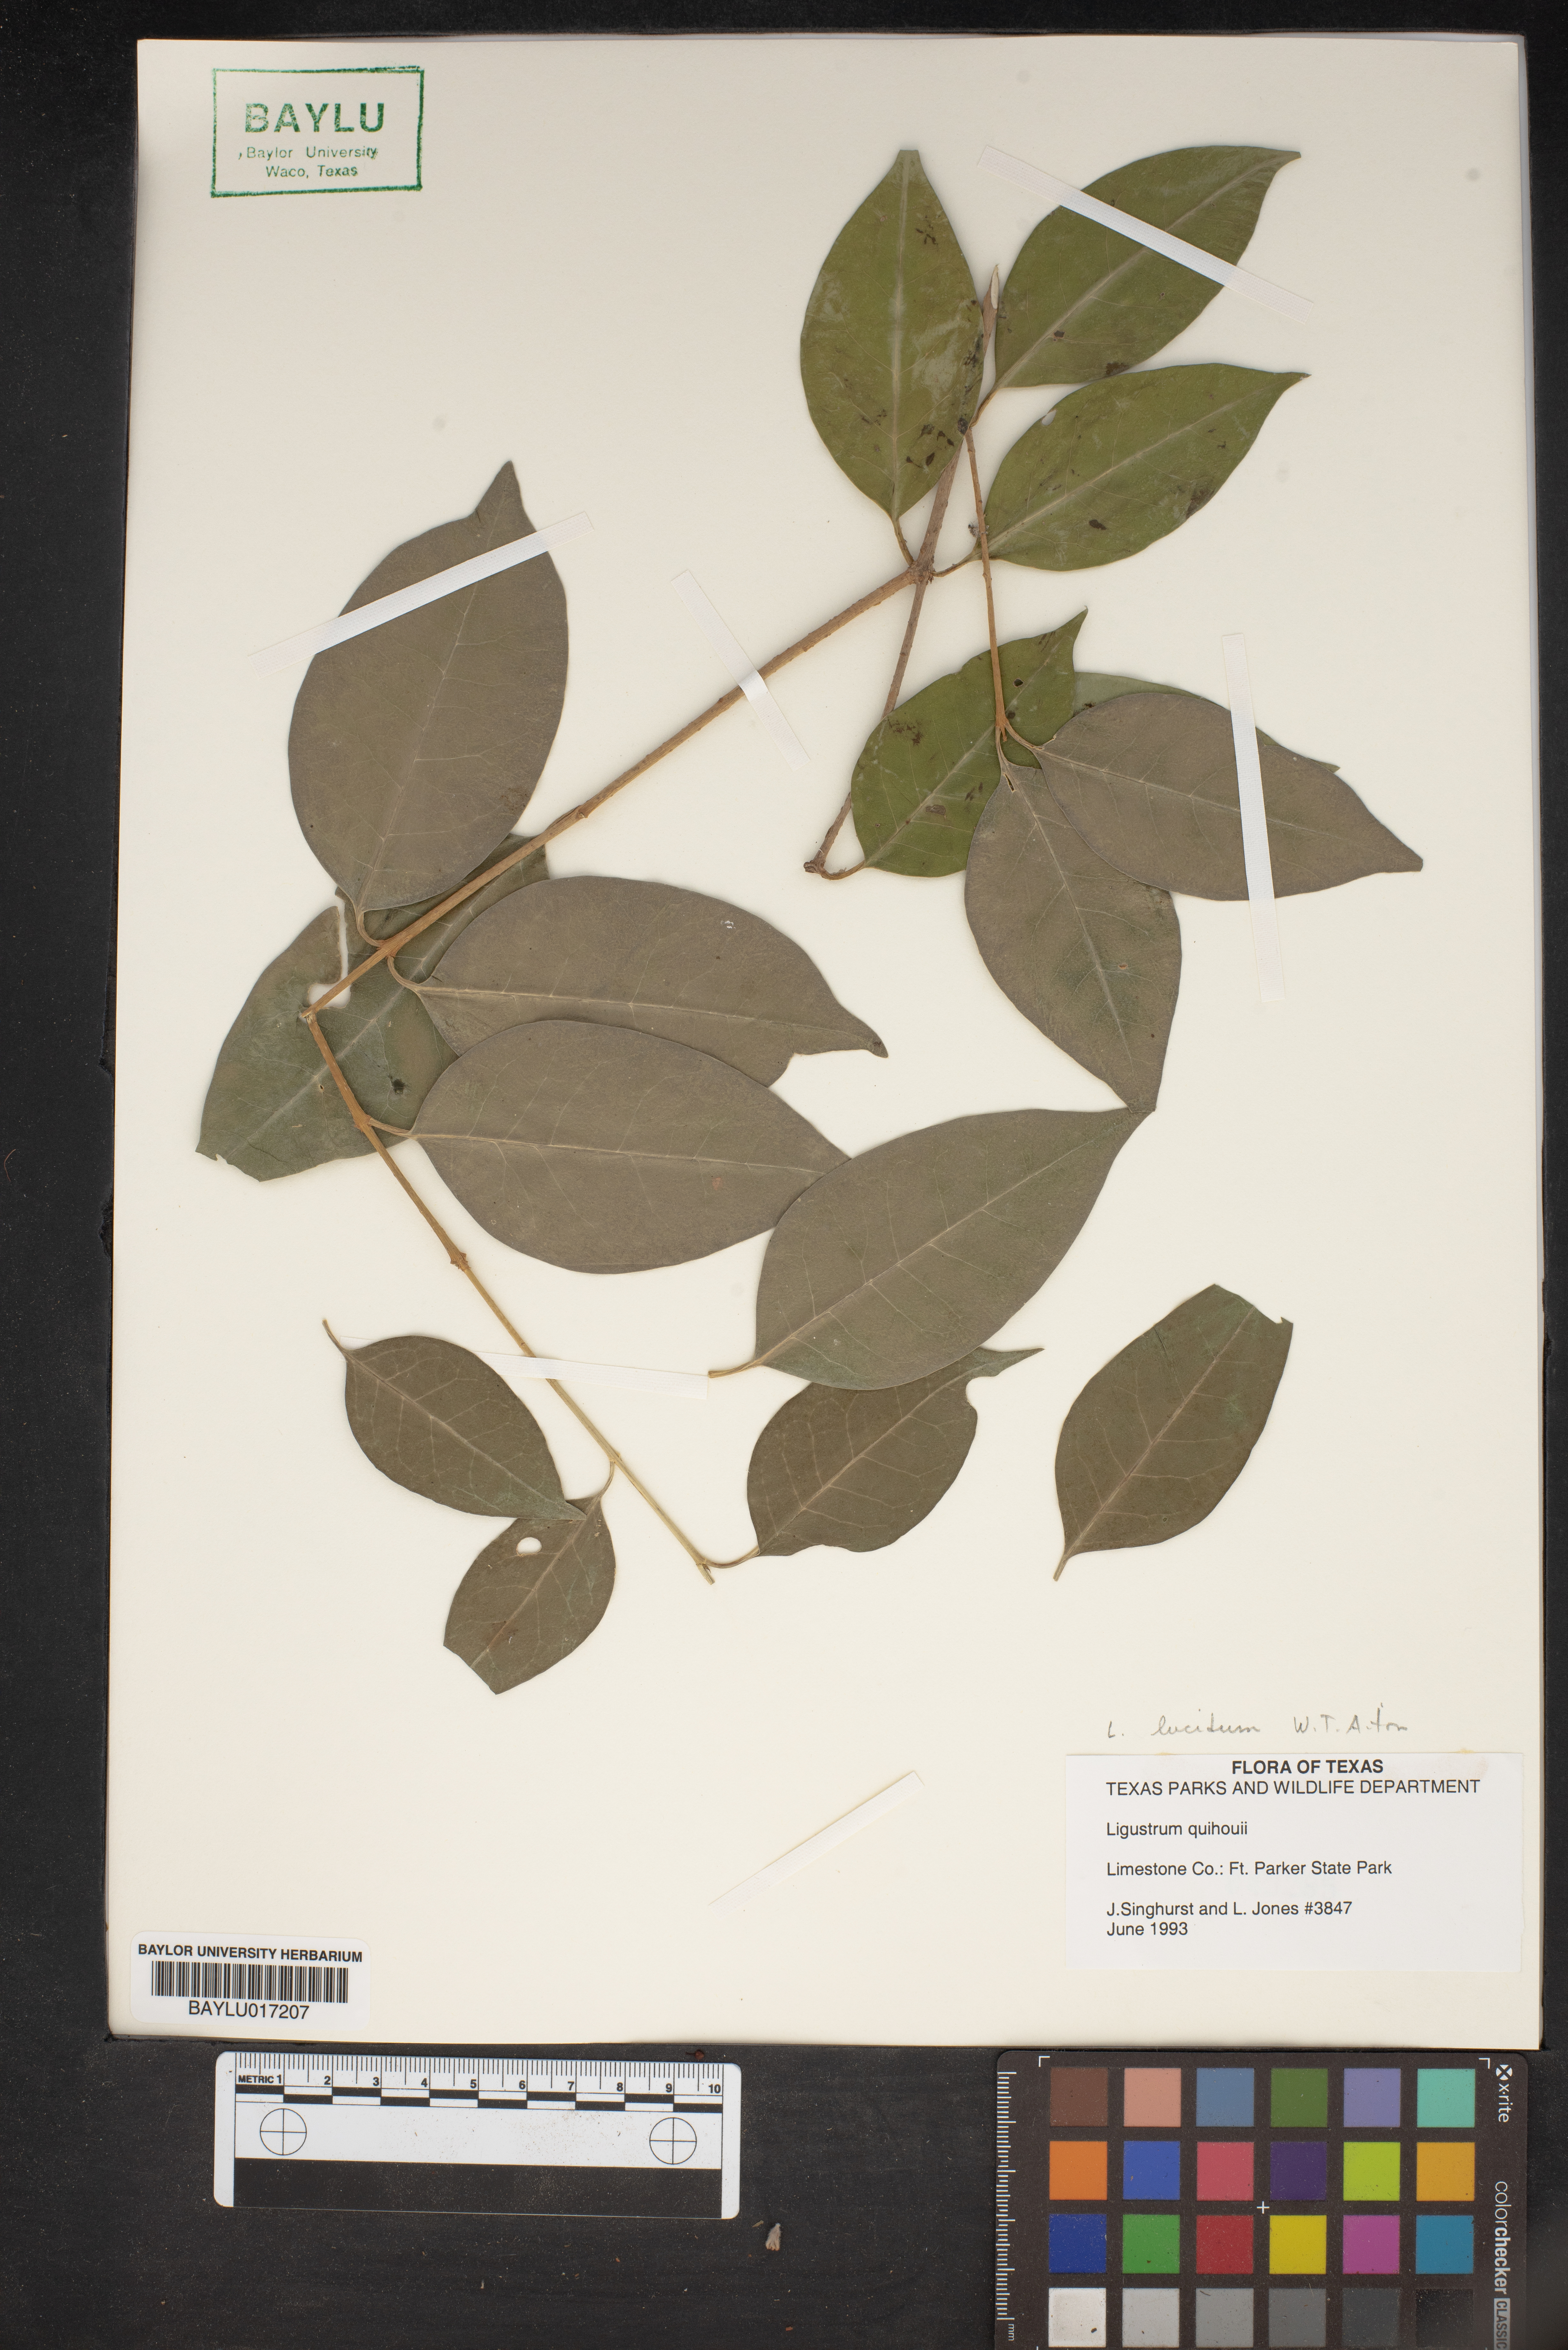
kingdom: Plantae
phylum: Tracheophyta
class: Magnoliopsida
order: Lamiales
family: Oleaceae
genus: Ligustrum
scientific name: Ligustrum quihoui
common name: Waxyleaf privet
